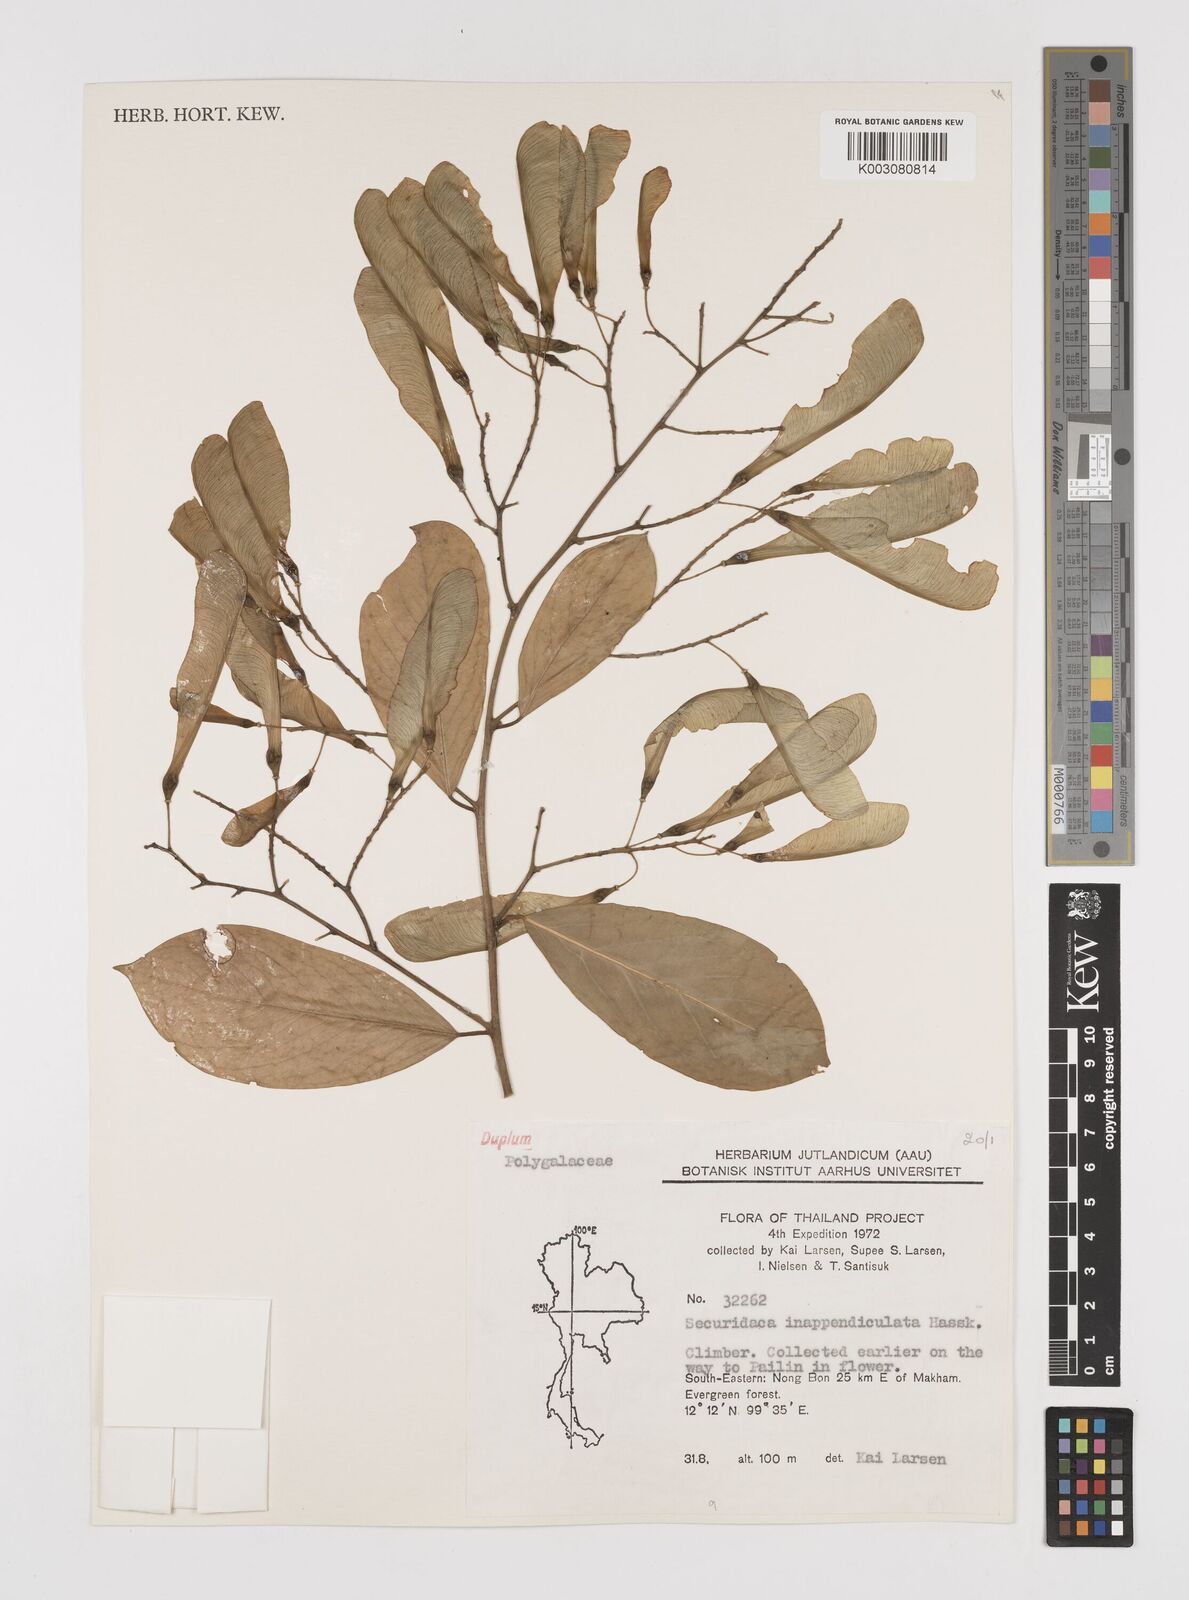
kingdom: Plantae
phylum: Tracheophyta
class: Magnoliopsida
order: Fabales
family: Polygalaceae
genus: Securidaca
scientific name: Securidaca inappendiculata
